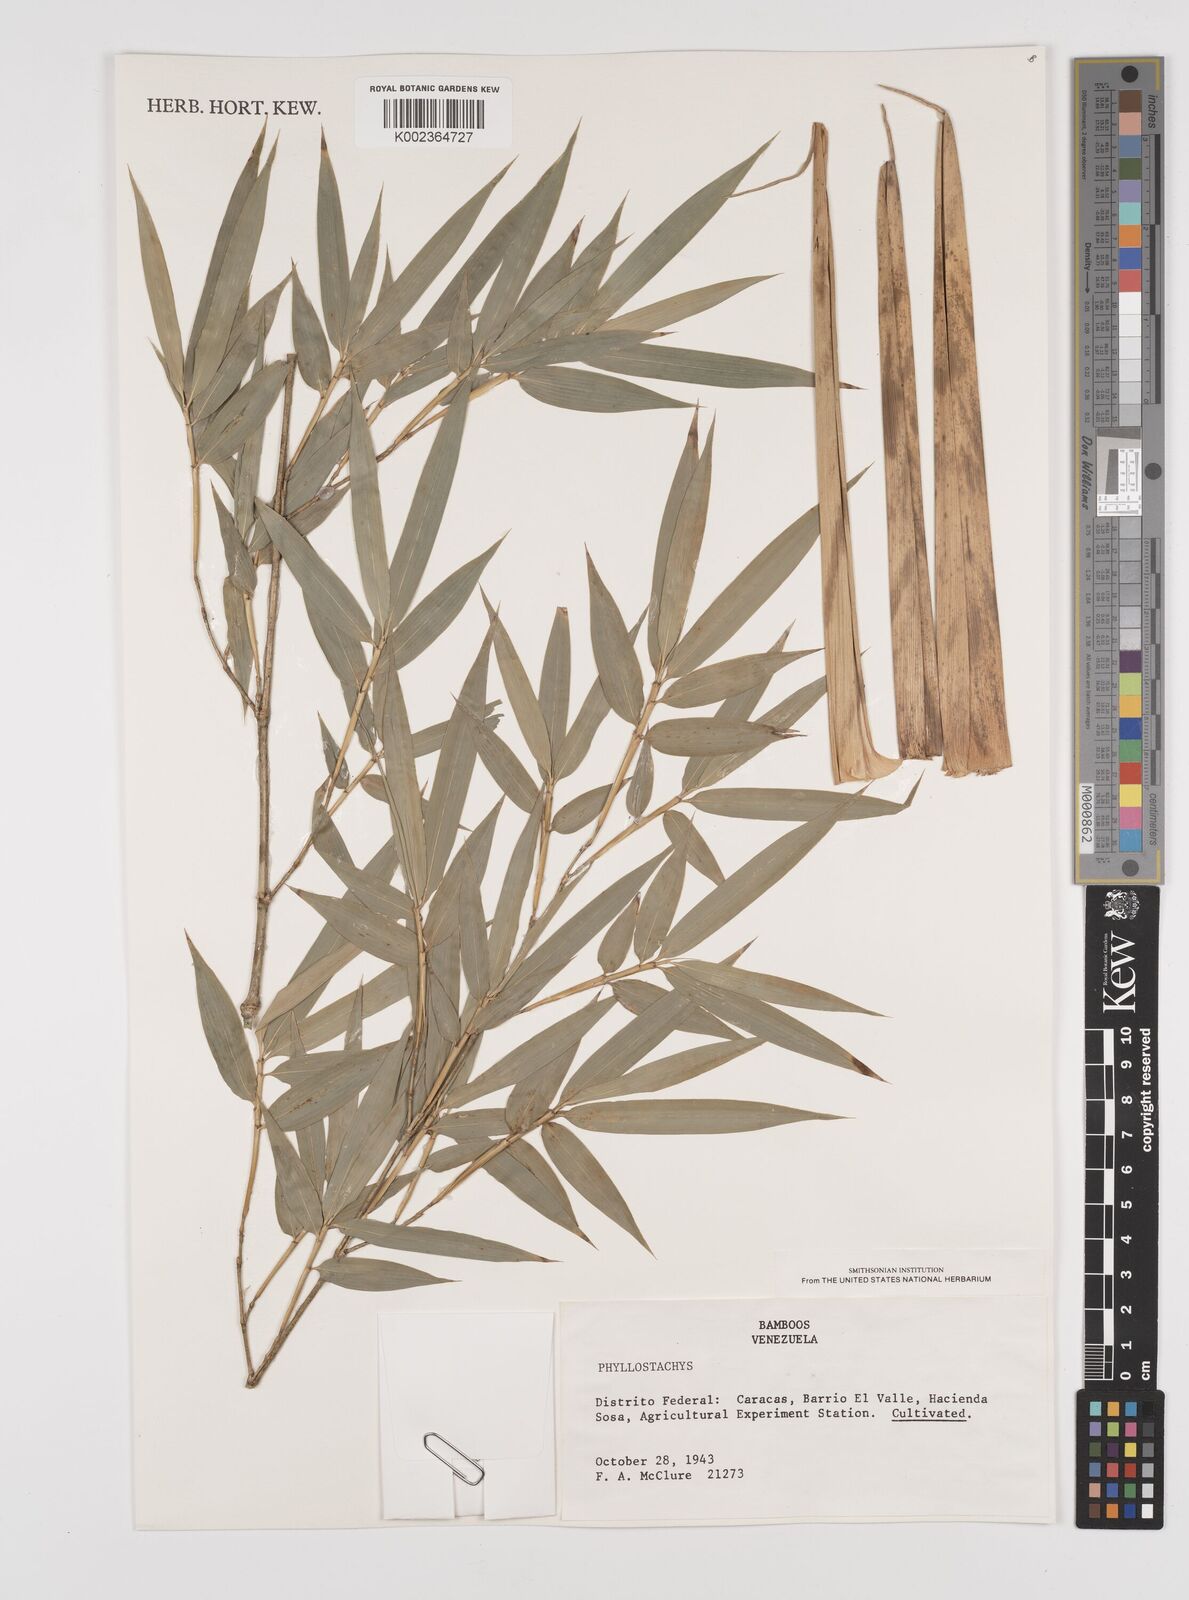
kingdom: Plantae
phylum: Tracheophyta
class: Liliopsida
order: Poales
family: Poaceae
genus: Phyllostachys
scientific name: Phyllostachys aurea
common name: Golden bamboo
